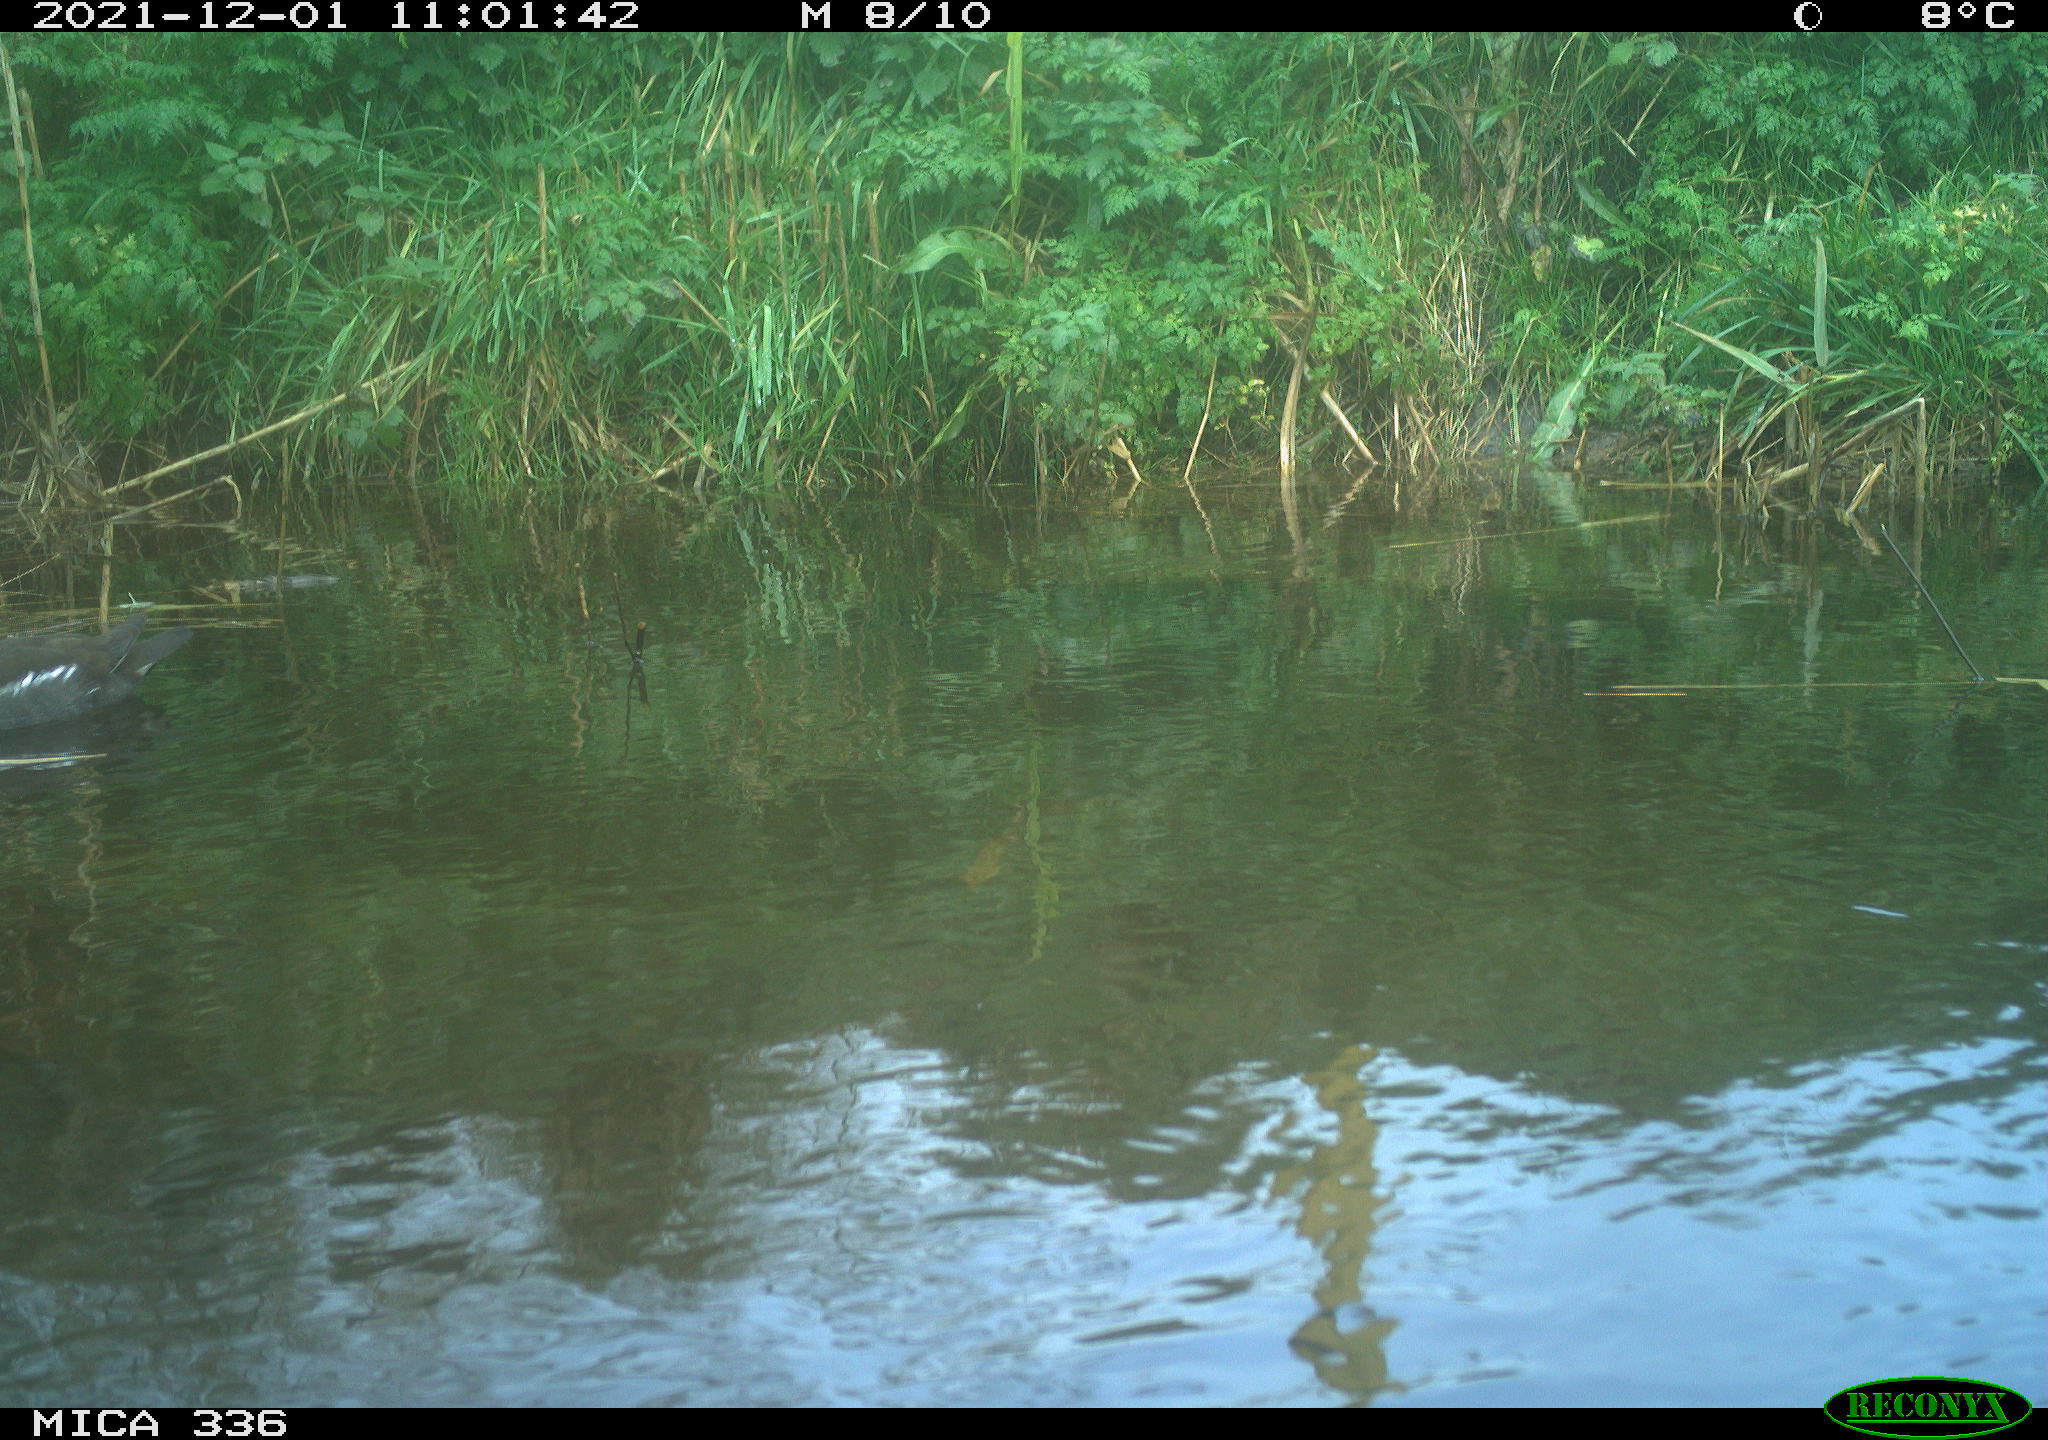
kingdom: Animalia
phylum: Chordata
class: Aves
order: Gruiformes
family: Rallidae
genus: Gallinula
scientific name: Gallinula chloropus
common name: Common moorhen
